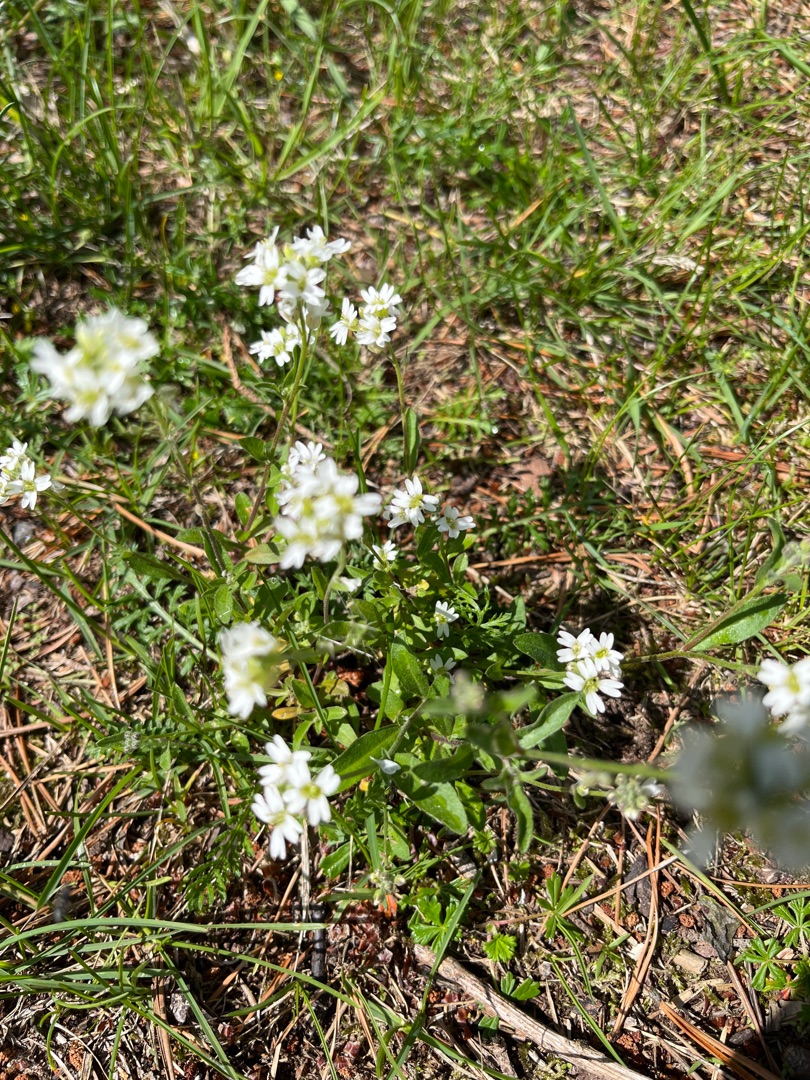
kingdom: Plantae
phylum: Tracheophyta
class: Magnoliopsida
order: Brassicales
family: Brassicaceae
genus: Berteroa
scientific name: Berteroa incana
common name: Kløvplade
